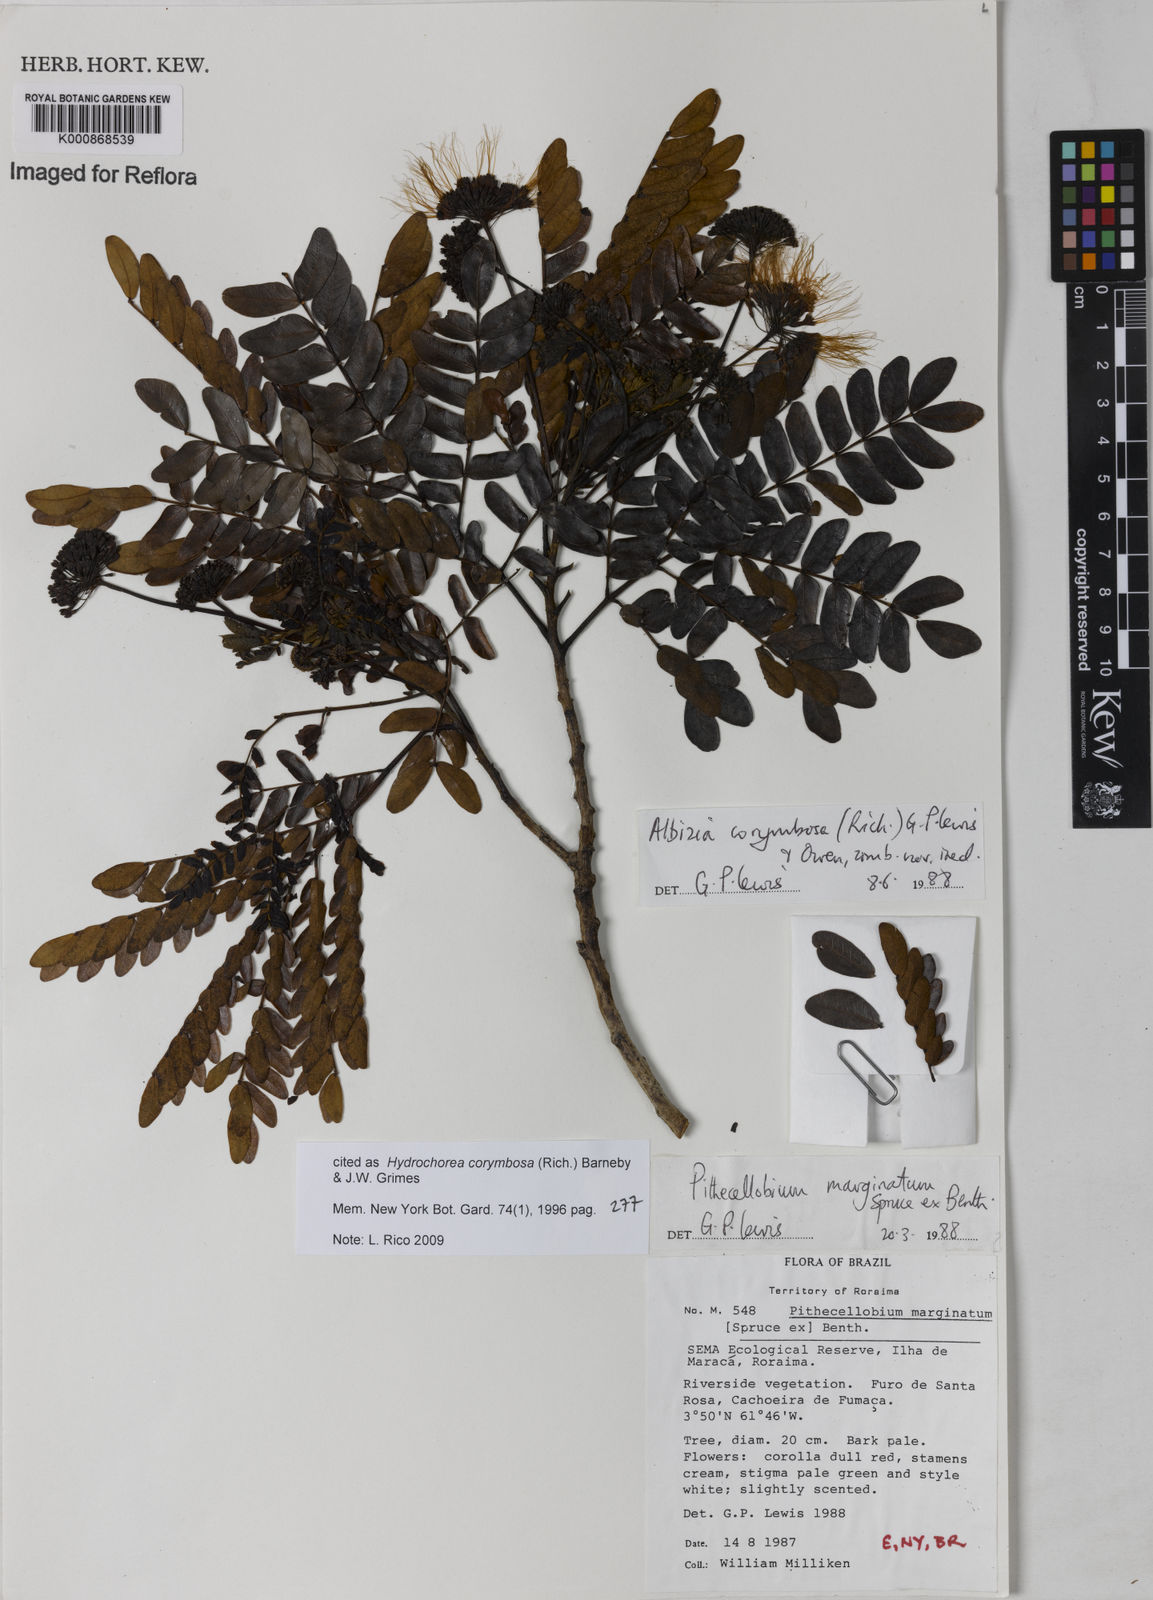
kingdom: Plantae
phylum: Tracheophyta
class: Magnoliopsida
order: Fabales
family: Fabaceae
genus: Hydrochorea
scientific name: Hydrochorea corymbosa
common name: Swamp manariballi
